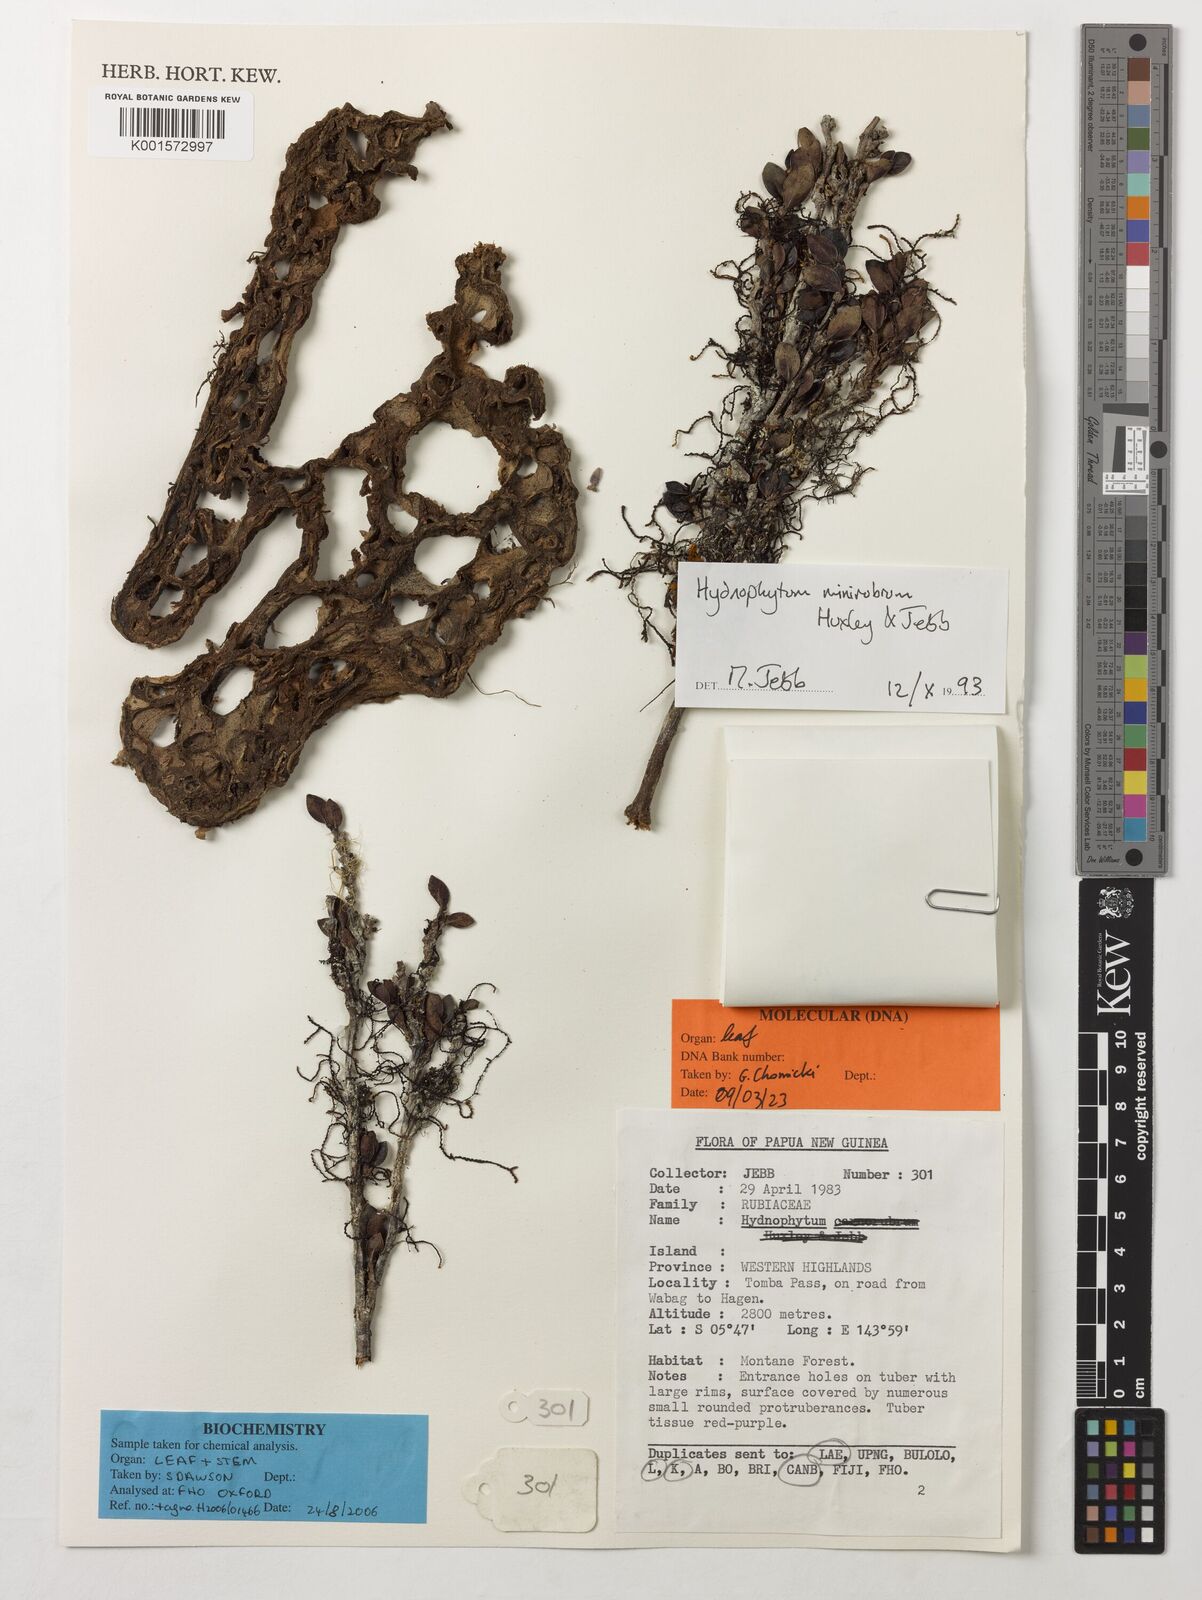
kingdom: Plantae
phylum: Tracheophyta
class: Magnoliopsida
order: Gentianales
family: Rubiaceae
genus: Hydnophytum
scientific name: Hydnophytum minirubrum
